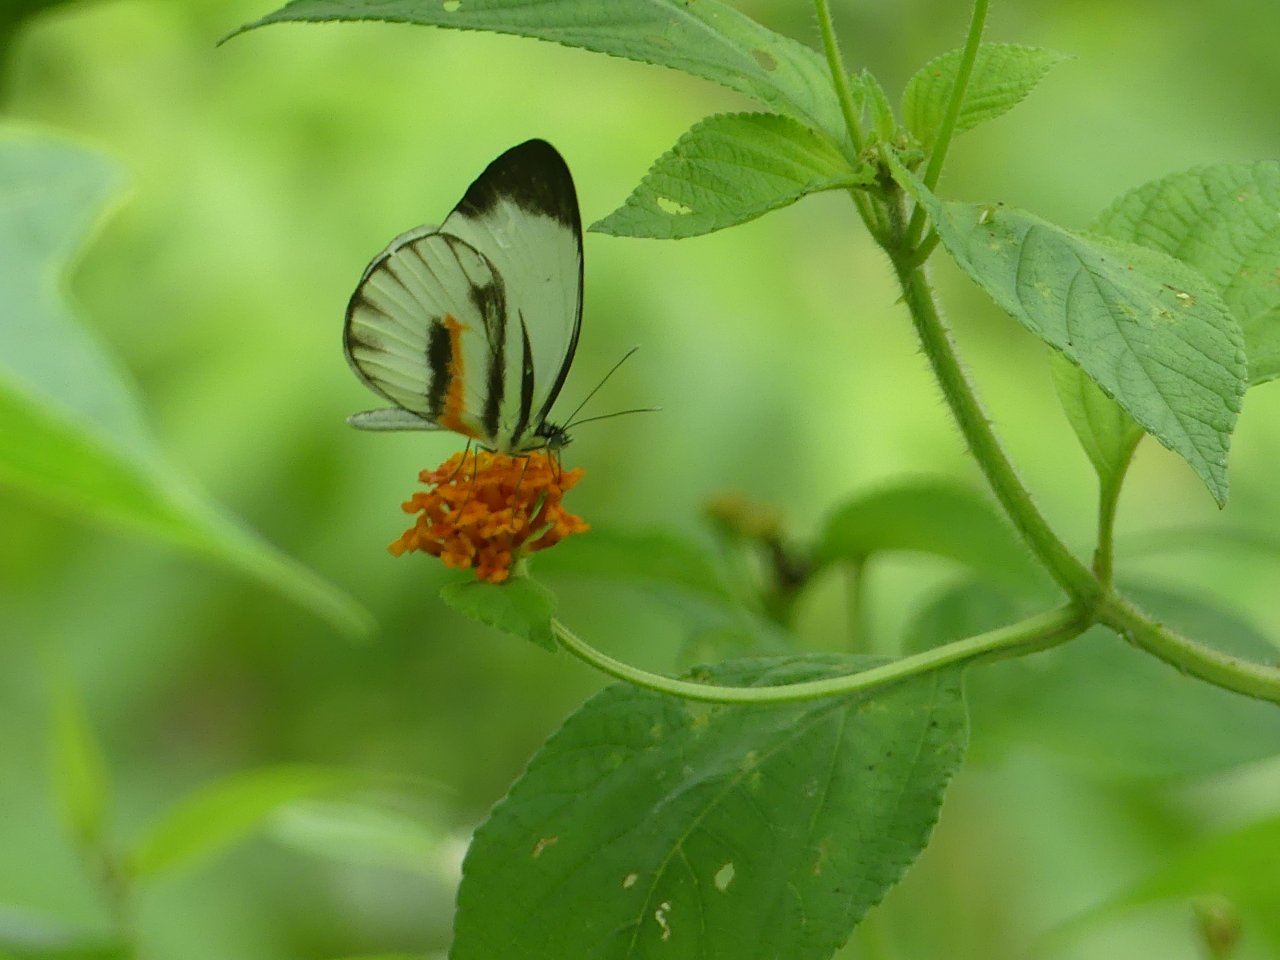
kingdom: Animalia
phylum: Arthropoda
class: Insecta
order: Lepidoptera
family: Pieridae
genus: Perrhybris
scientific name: Perrhybris pamela
